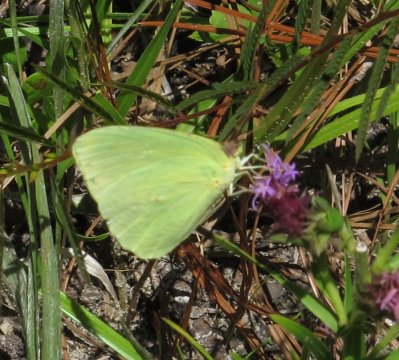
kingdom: Animalia
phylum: Arthropoda
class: Insecta
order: Lepidoptera
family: Pieridae
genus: Phoebis
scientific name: Phoebis sennae
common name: Cloudless Sulphur
